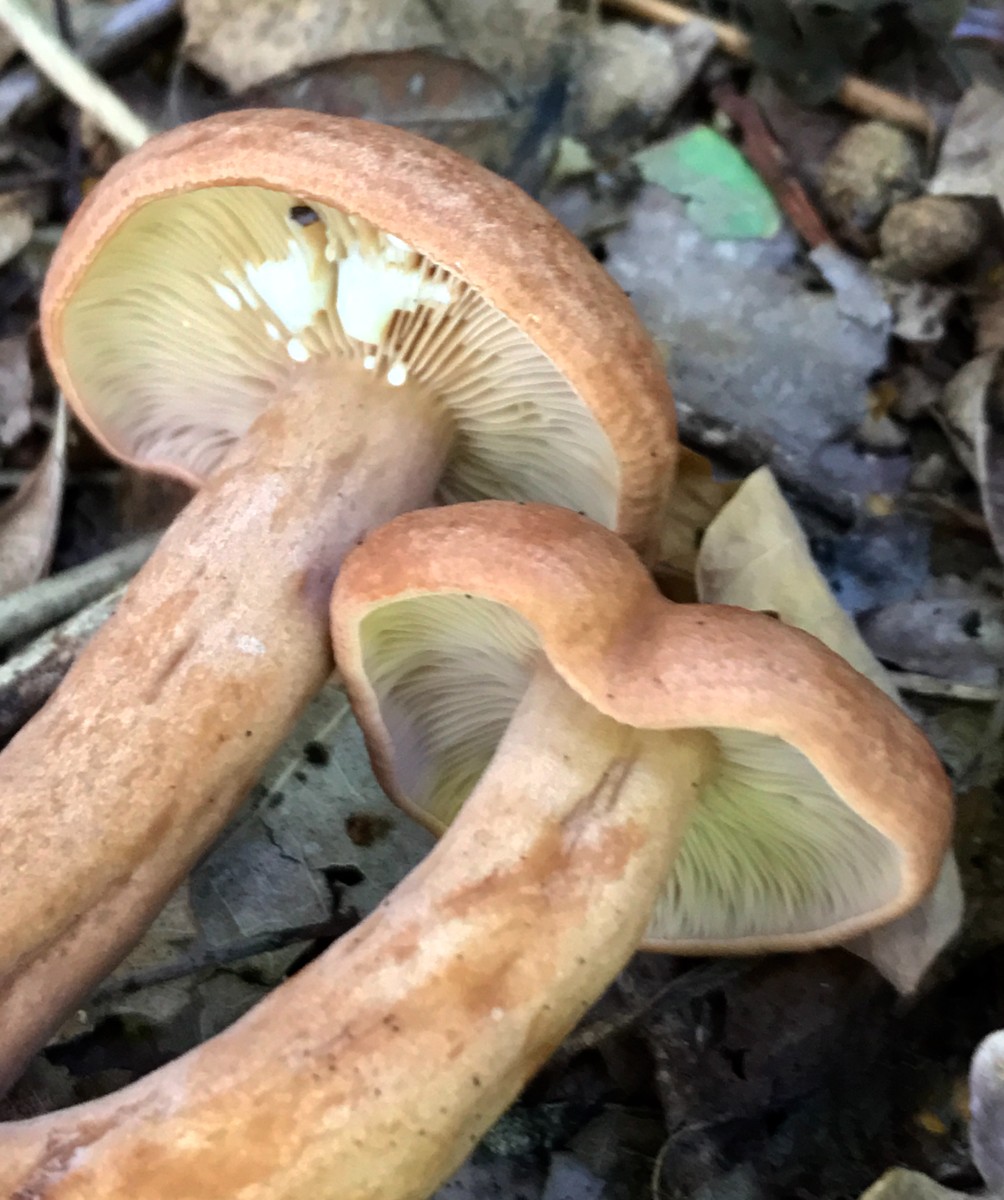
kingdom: Fungi
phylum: Basidiomycota
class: Agaricomycetes
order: Russulales
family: Russulaceae
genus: Lactarius
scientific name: Lactarius quietus
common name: ege-mælkehat
